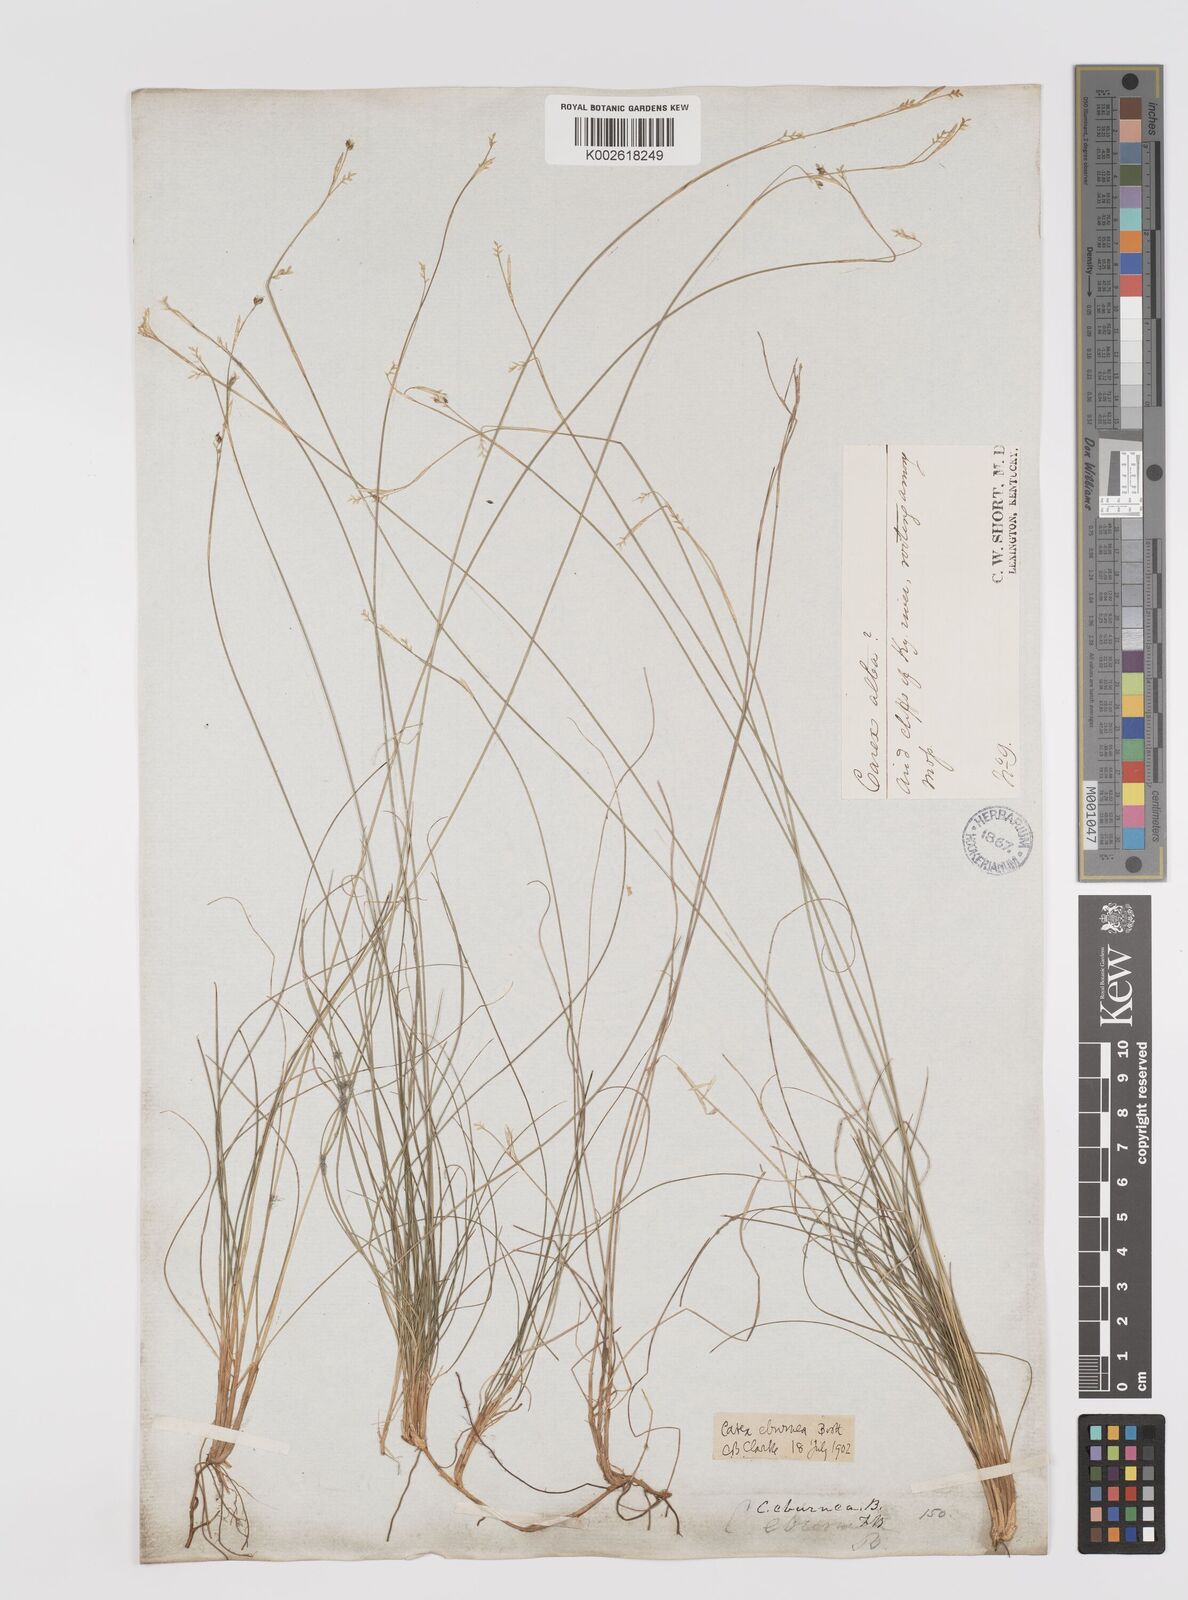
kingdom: Plantae
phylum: Tracheophyta
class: Liliopsida
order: Poales
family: Cyperaceae
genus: Carex
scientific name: Carex eburnea
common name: Bristle-leaved sedge
